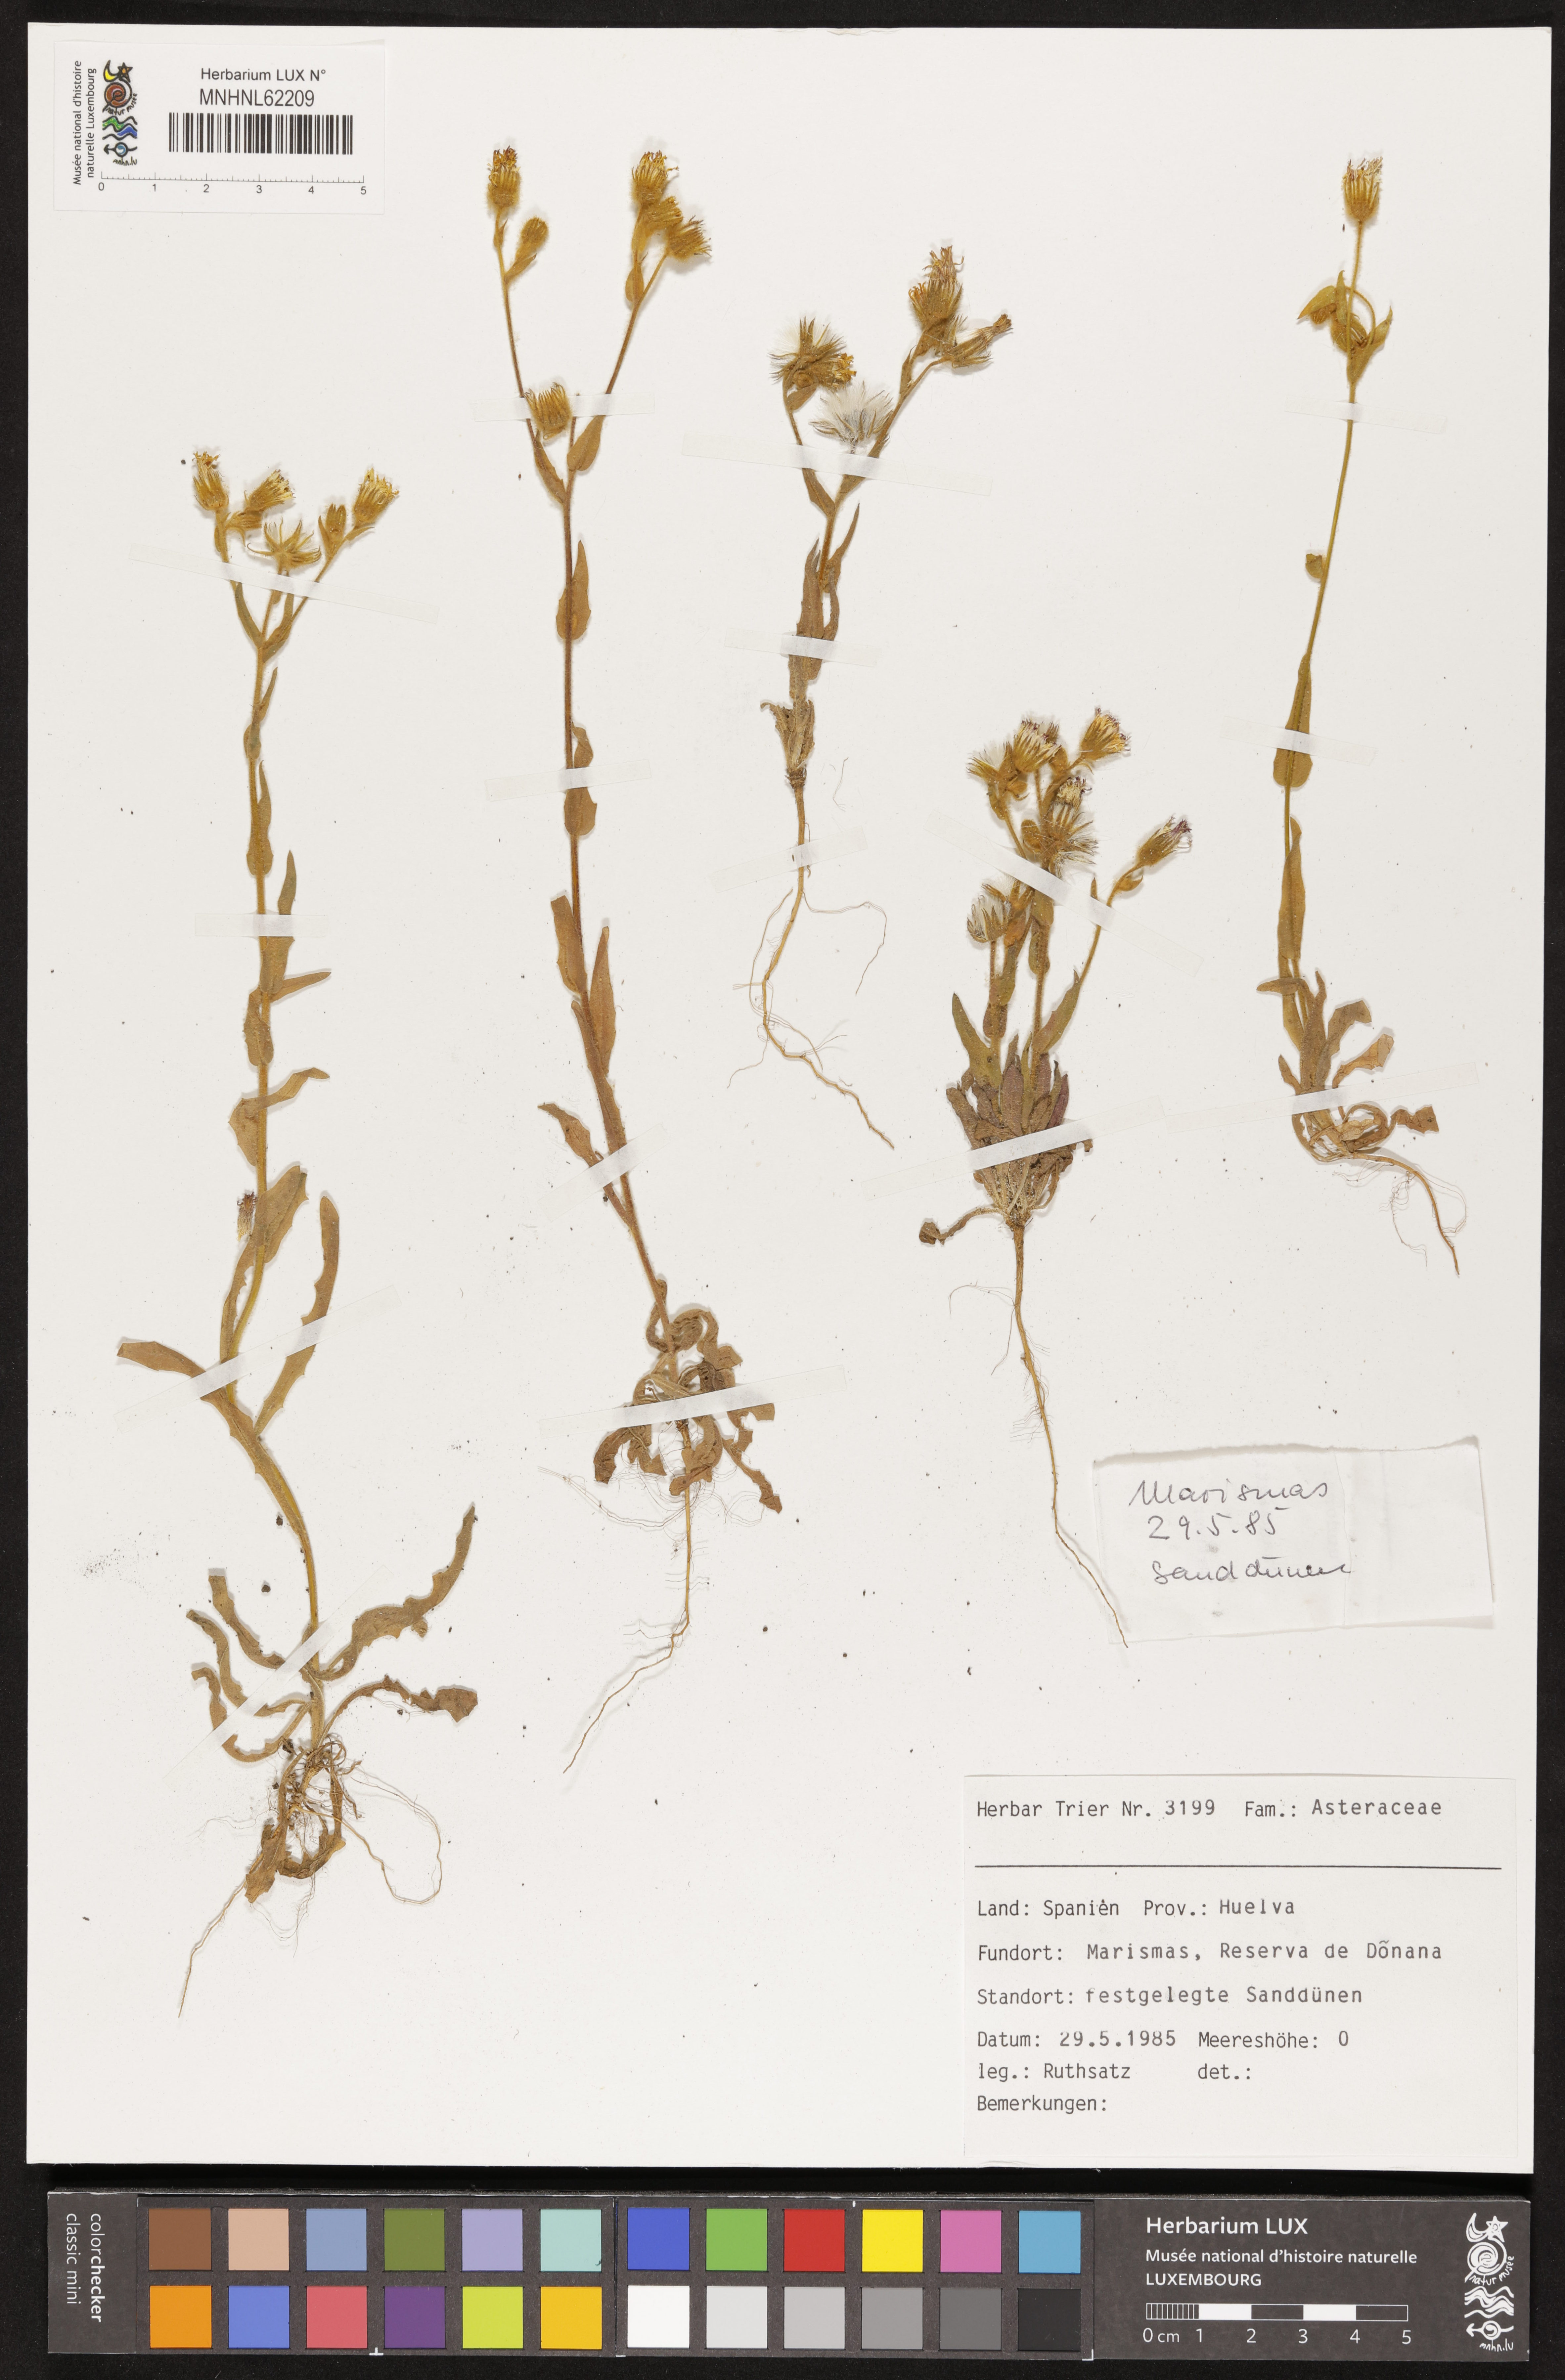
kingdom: Plantae
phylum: Tracheophyta
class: Magnoliopsida
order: Asterales
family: Asteraceae
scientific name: Asteraceae
